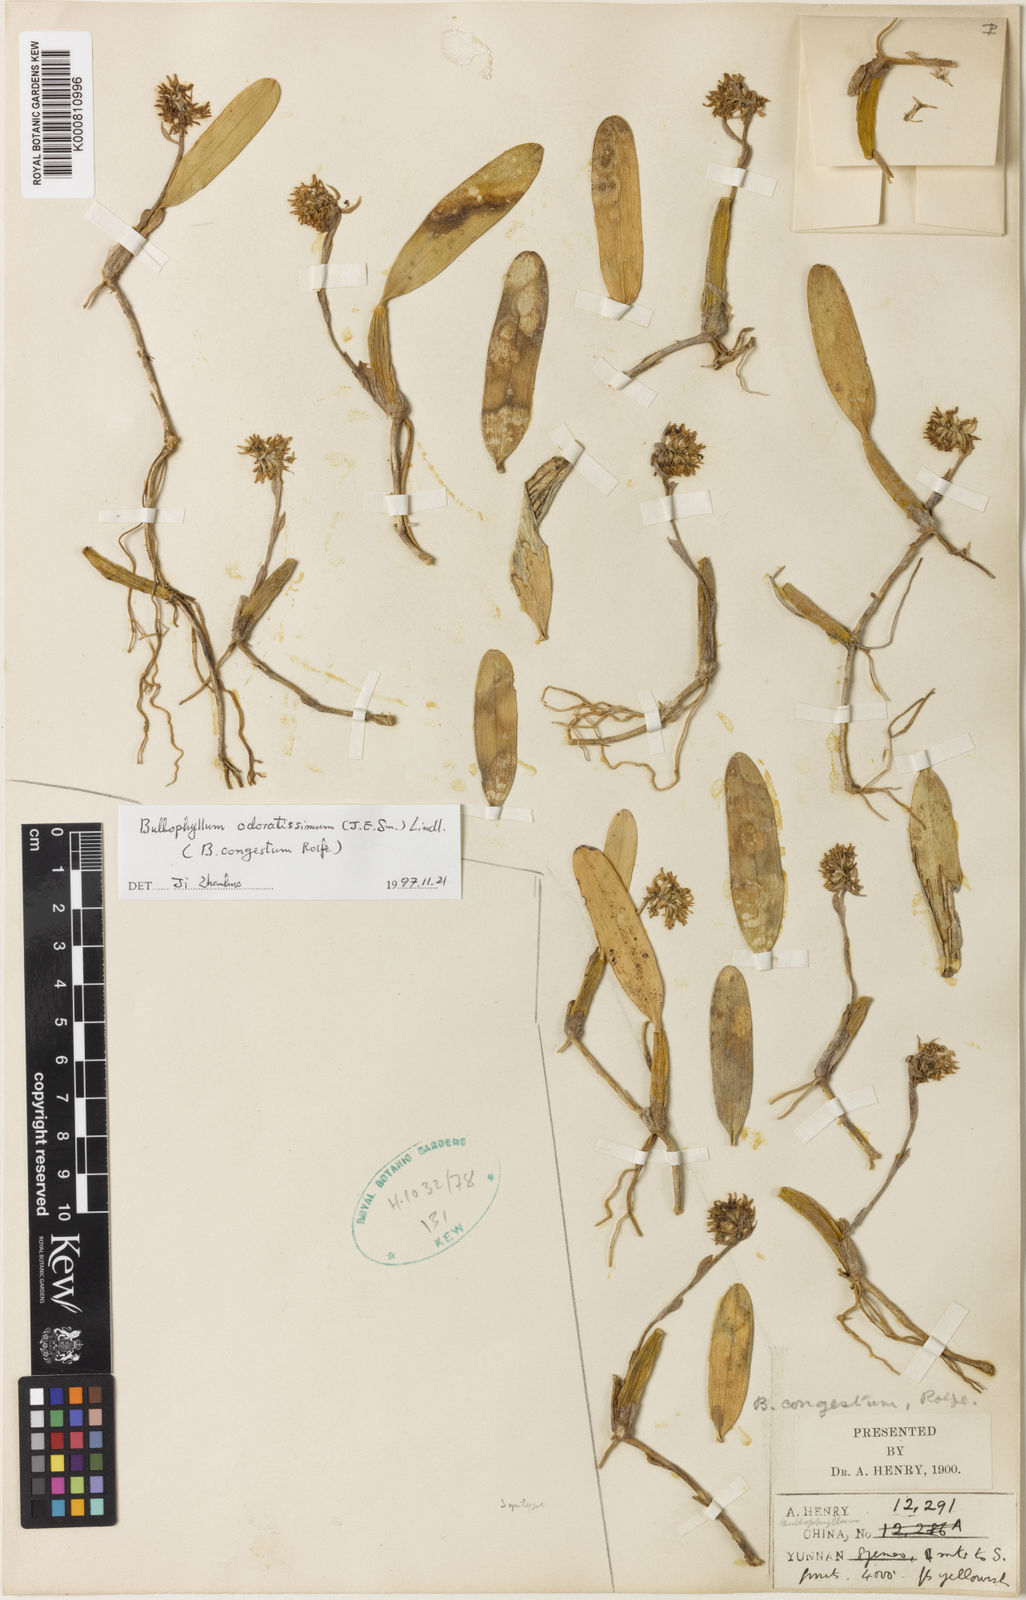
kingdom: Plantae
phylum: Tracheophyta
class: Liliopsida
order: Asparagales
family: Orchidaceae
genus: Bulbophyllum
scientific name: Bulbophyllum odoratissimum
